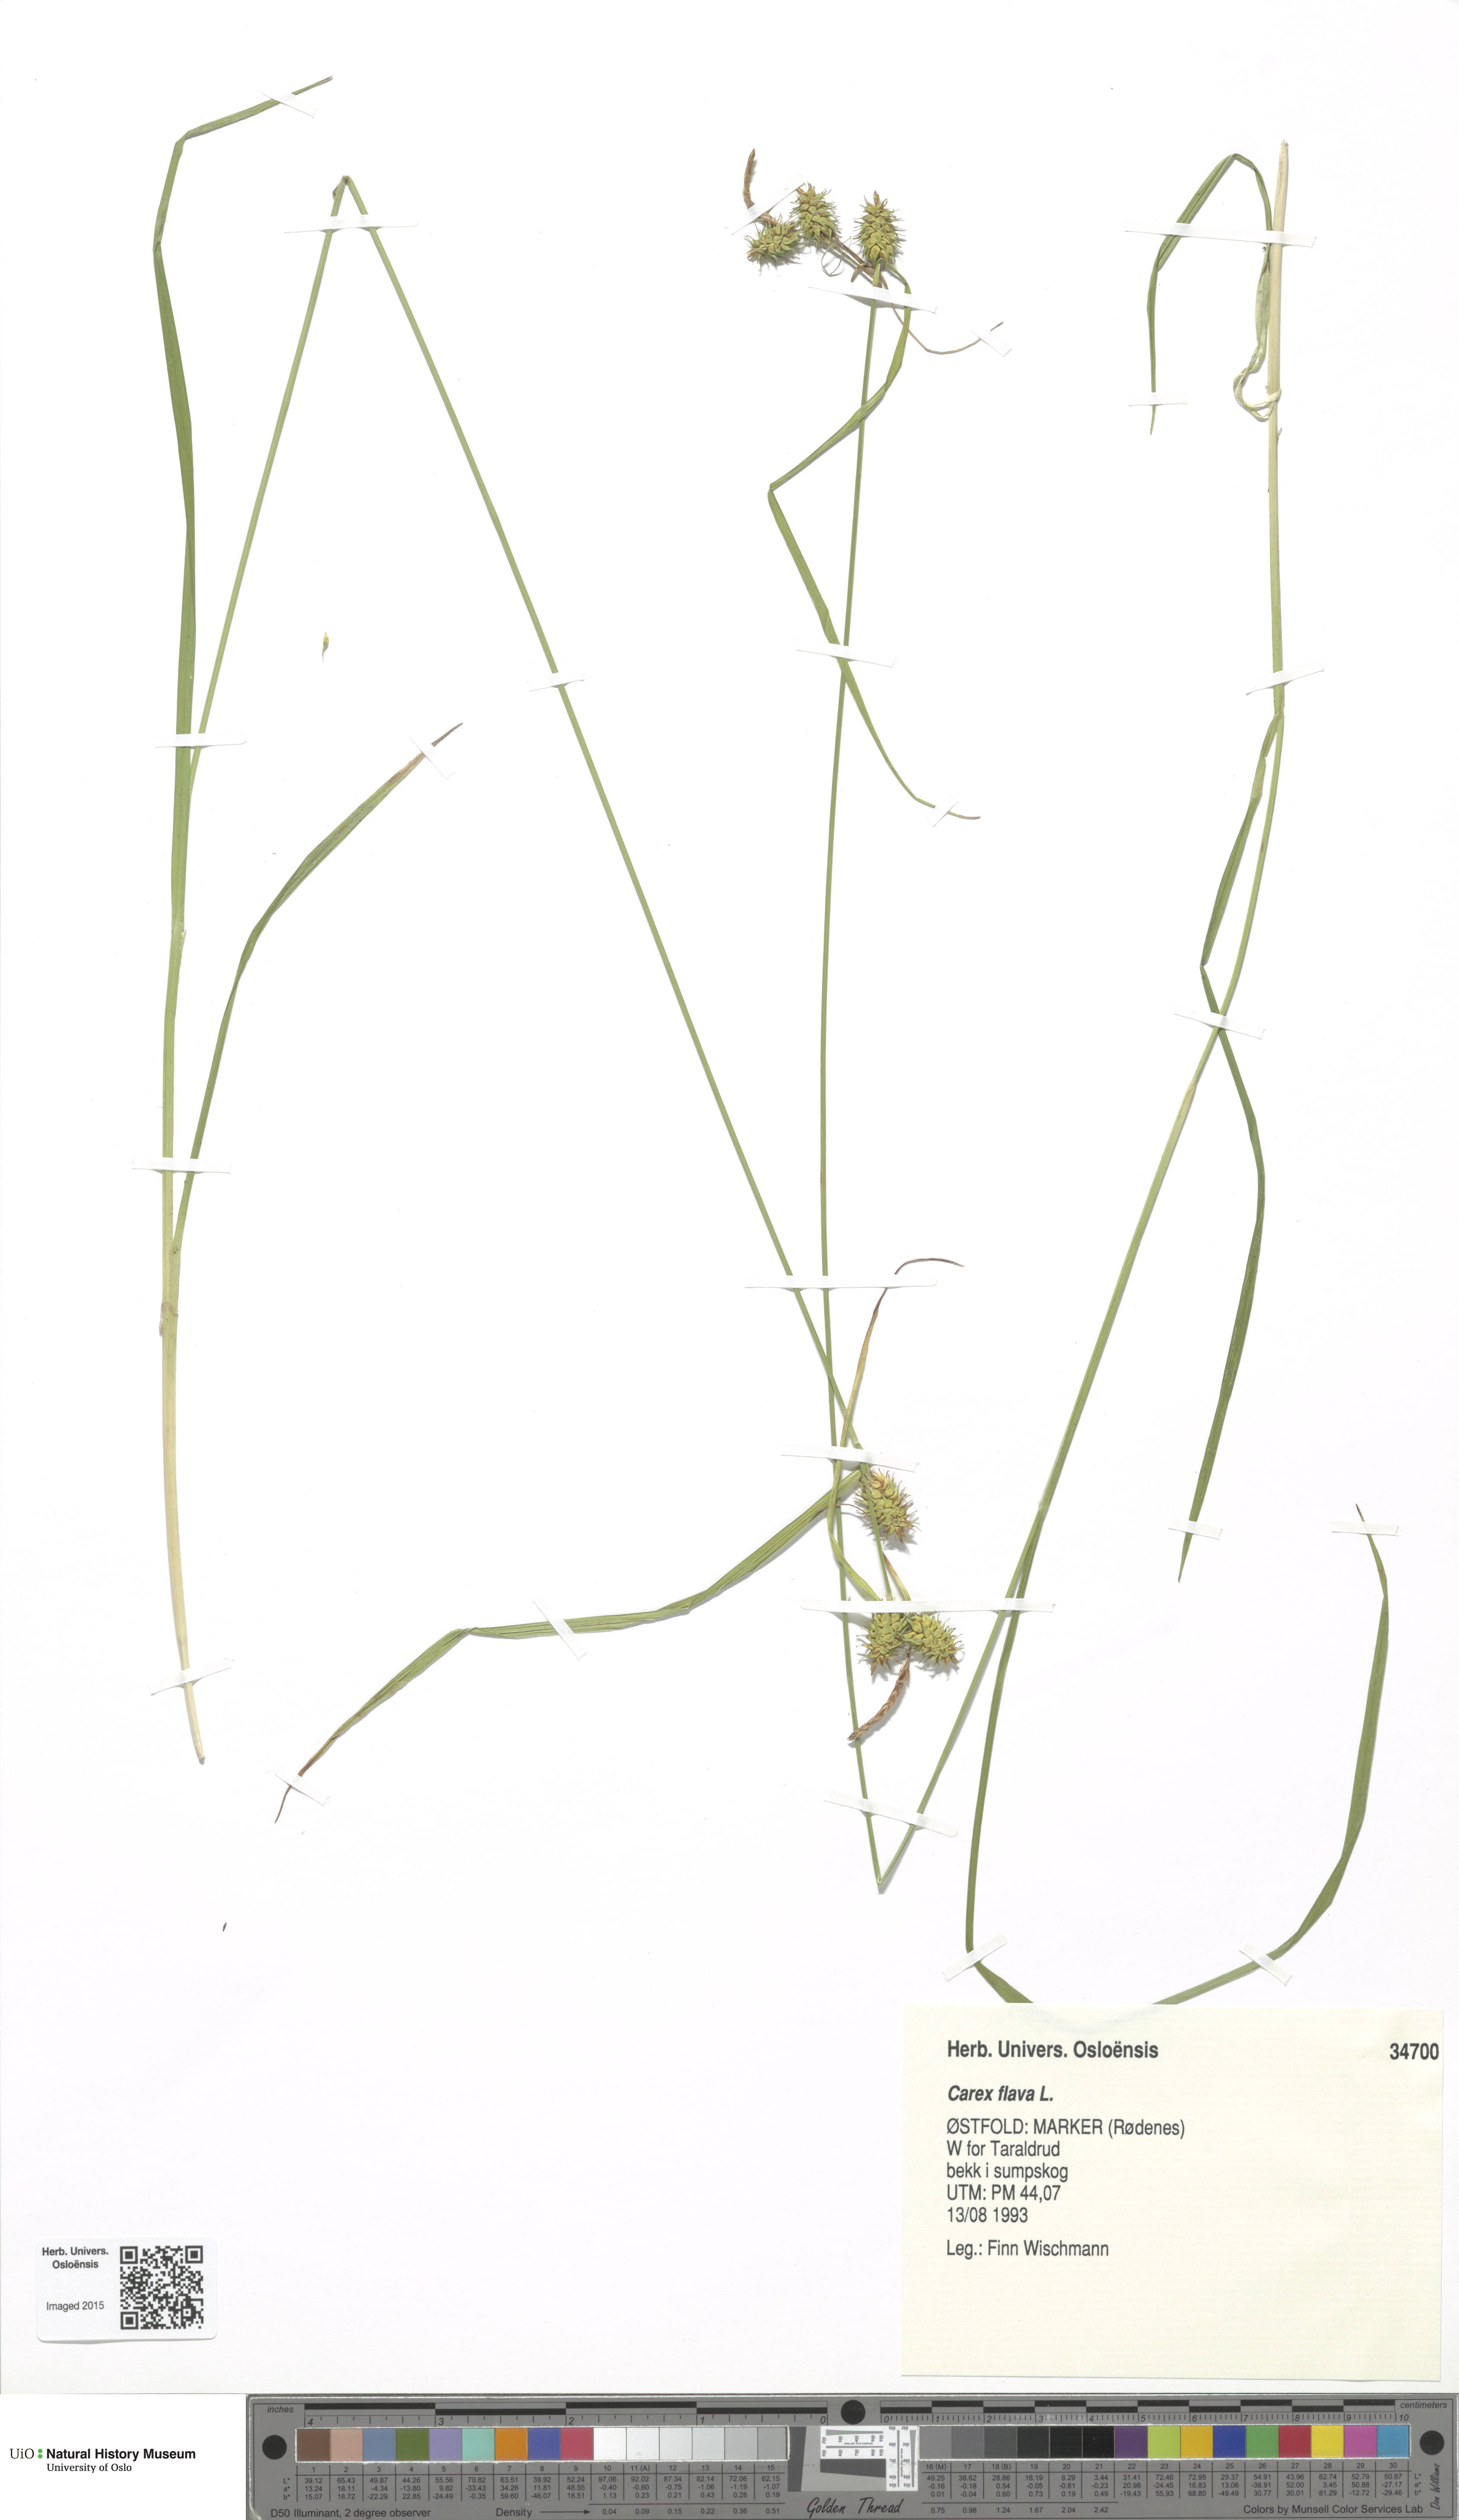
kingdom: Plantae
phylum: Tracheophyta
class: Liliopsida
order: Poales
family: Cyperaceae
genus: Carex
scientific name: Carex flava
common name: Large yellow-sedge
